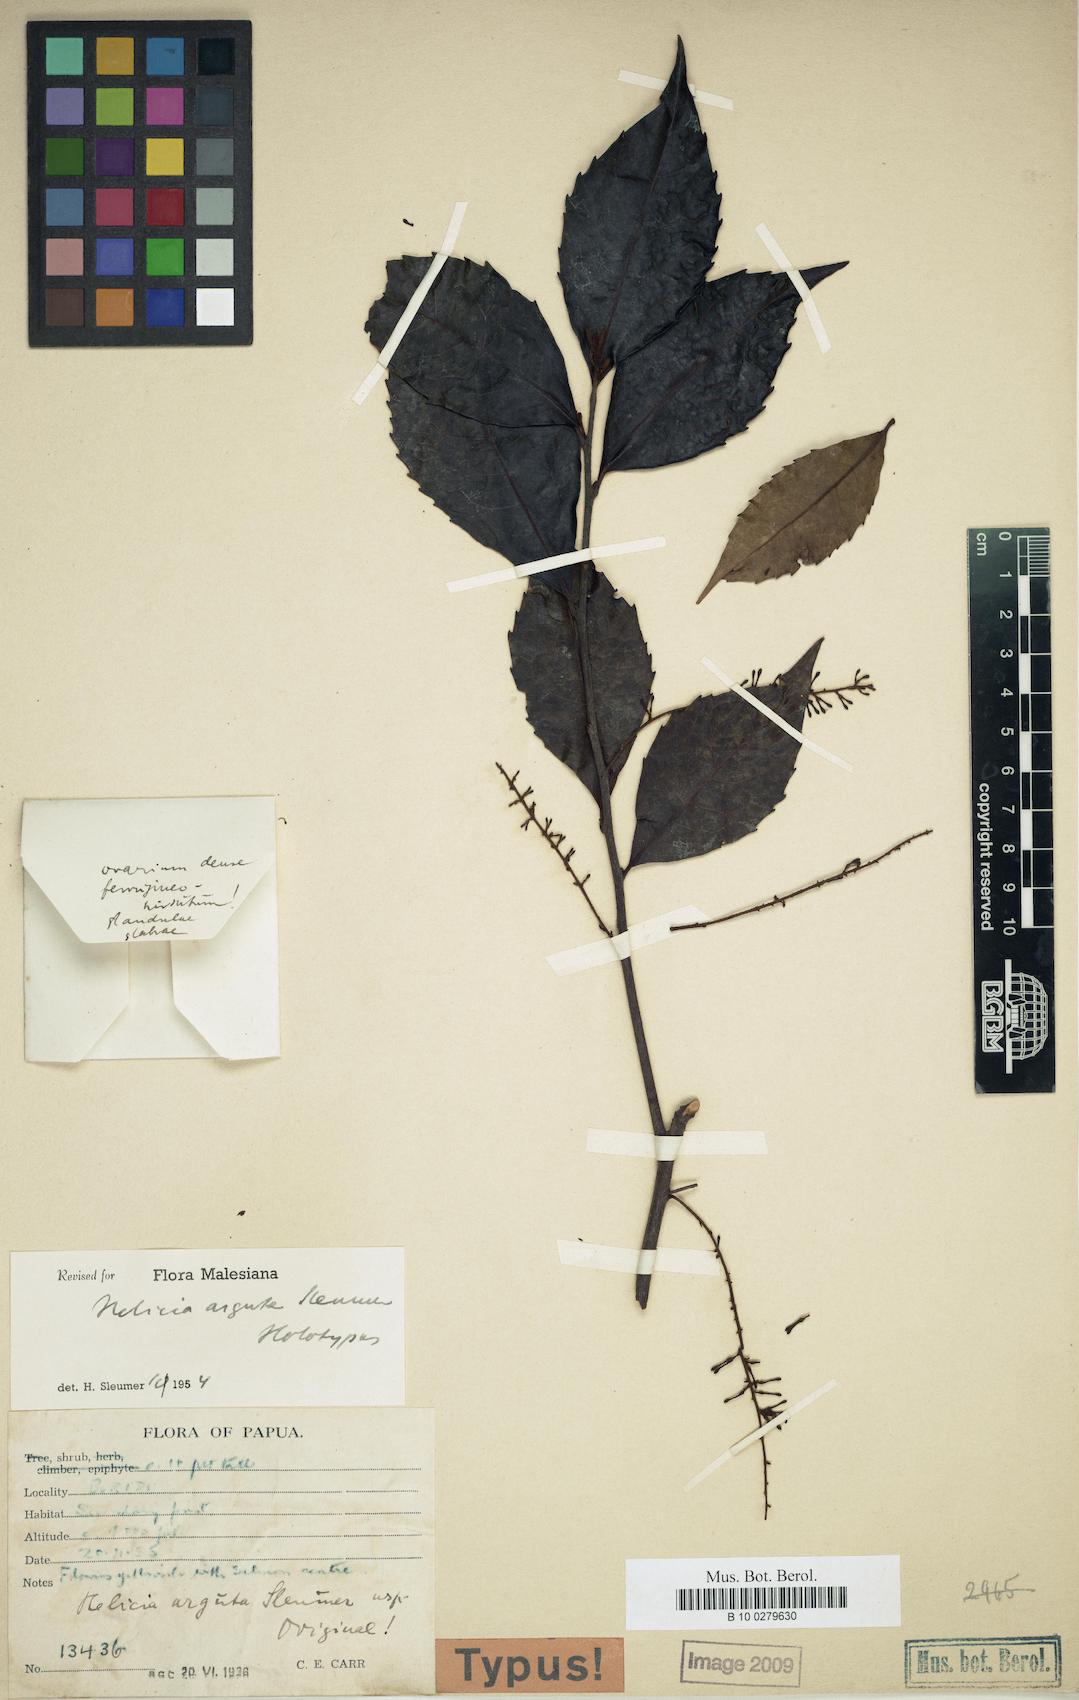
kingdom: Plantae
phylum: Tracheophyta
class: Magnoliopsida
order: Proteales
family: Proteaceae
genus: Helicia
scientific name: Helicia microneura
